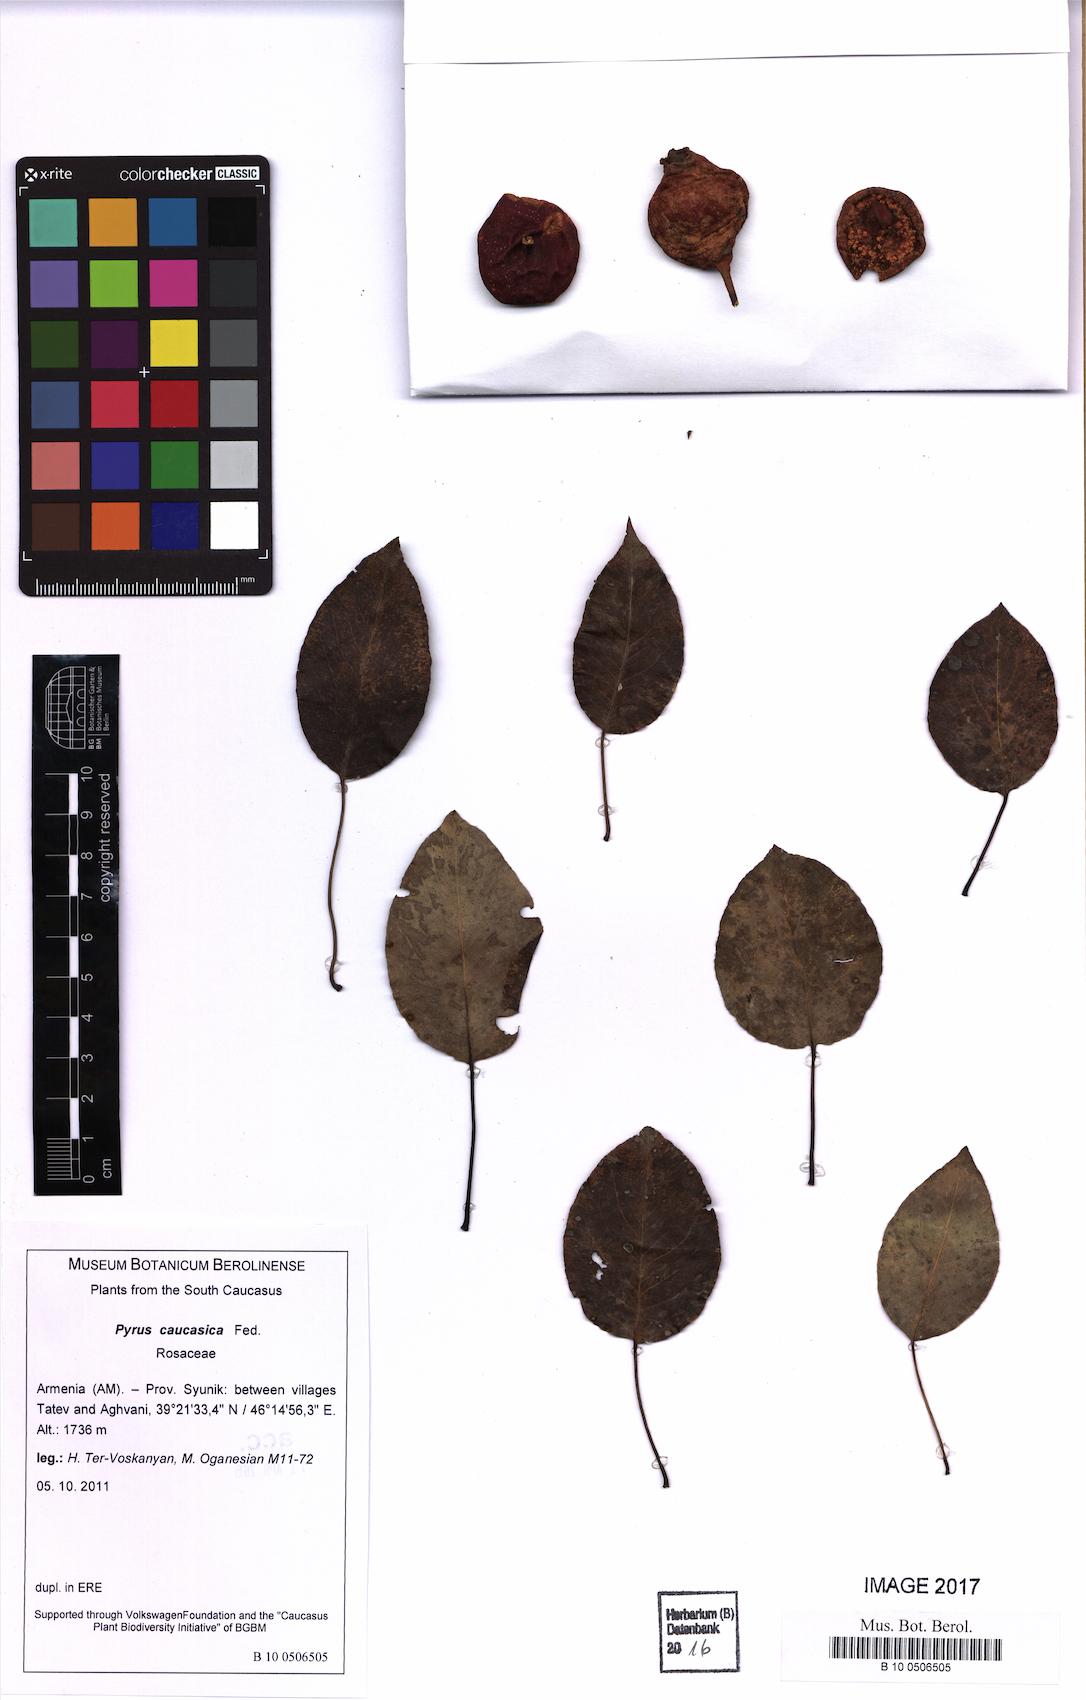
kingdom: Plantae
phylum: Tracheophyta
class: Magnoliopsida
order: Rosales
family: Rosaceae
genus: Pyrus
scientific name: Pyrus communis
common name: Pear
